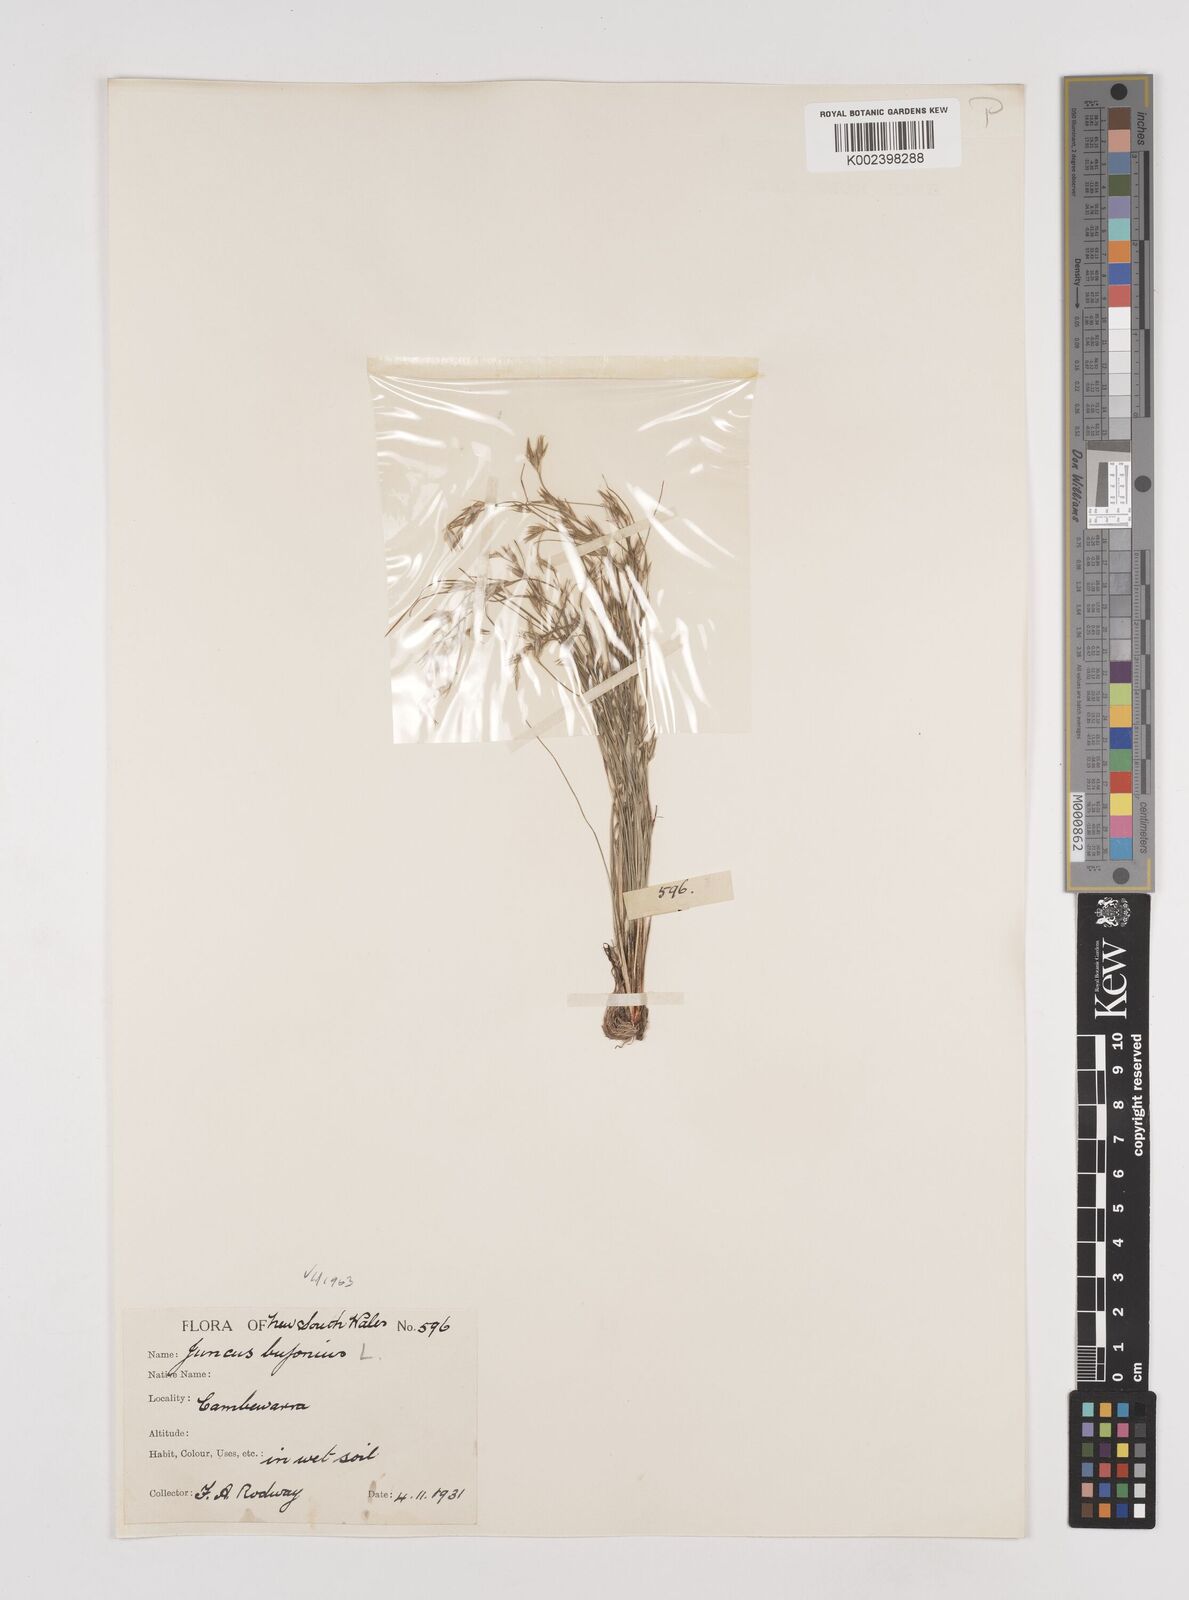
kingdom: Plantae
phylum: Tracheophyta
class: Liliopsida
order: Poales
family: Juncaceae
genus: Juncus
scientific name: Juncus ranarius
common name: Frog rush
